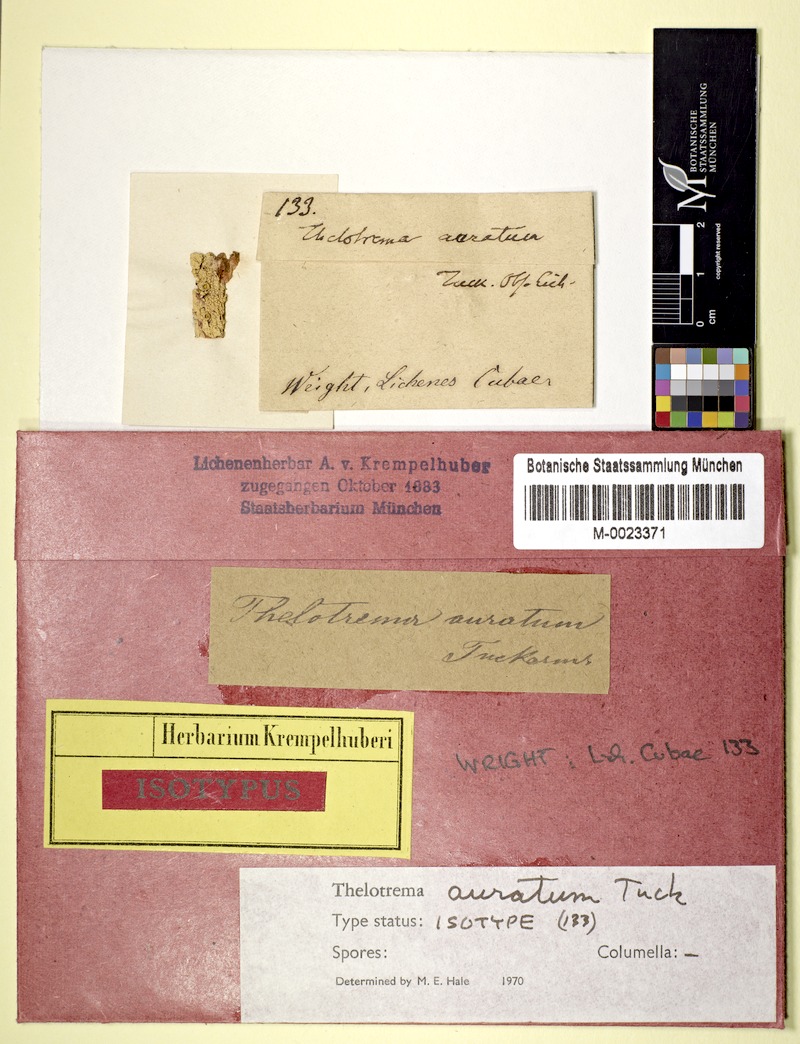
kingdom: Fungi
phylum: Ascomycota
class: Lecanoromycetes
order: Ostropales
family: Graphidaceae
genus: Ampliotrema
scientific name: Ampliotrema auratum
